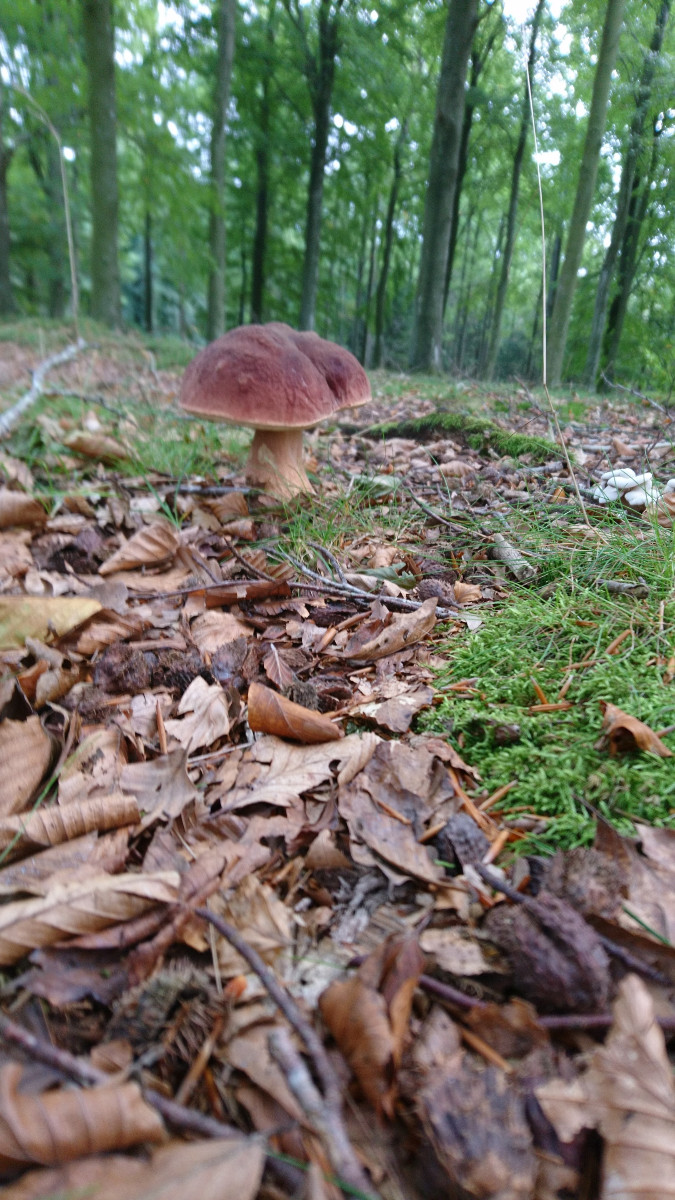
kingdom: Fungi
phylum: Basidiomycota
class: Agaricomycetes
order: Boletales
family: Boletaceae
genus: Boletus
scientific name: Boletus
